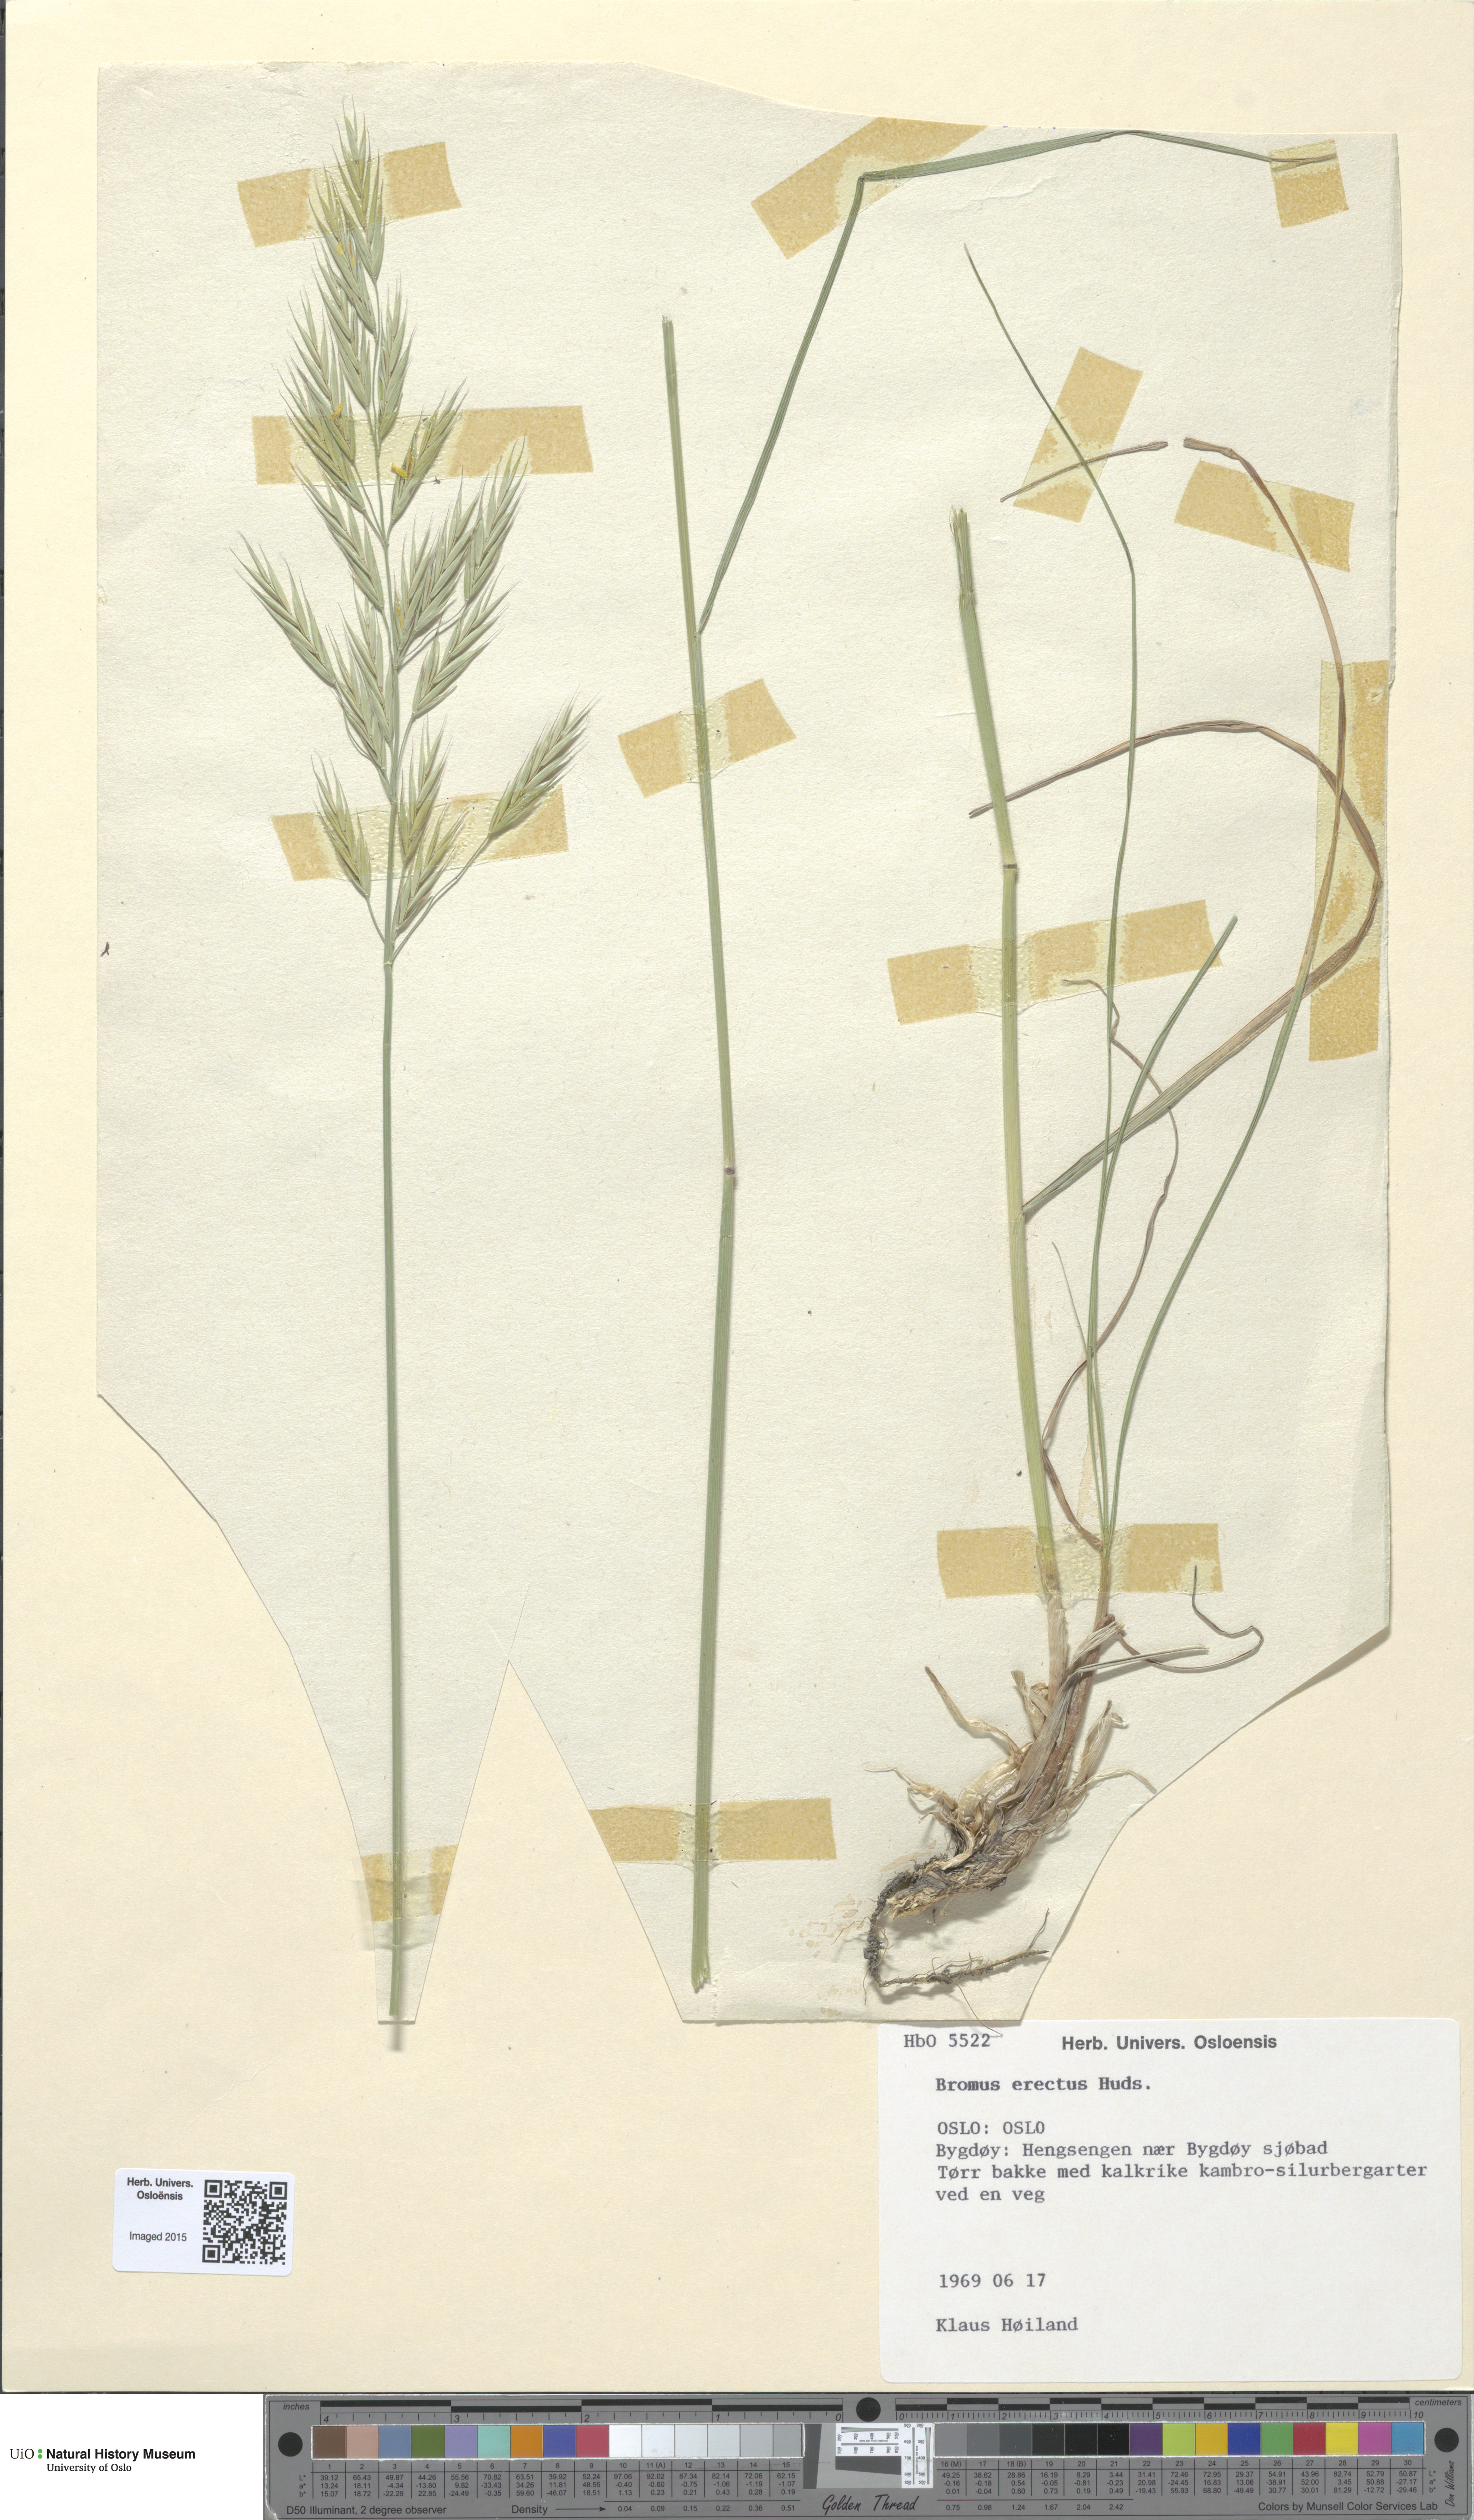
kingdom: Plantae
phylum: Tracheophyta
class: Liliopsida
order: Poales
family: Poaceae
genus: Bromus
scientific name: Bromus erectus
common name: Erect brome
